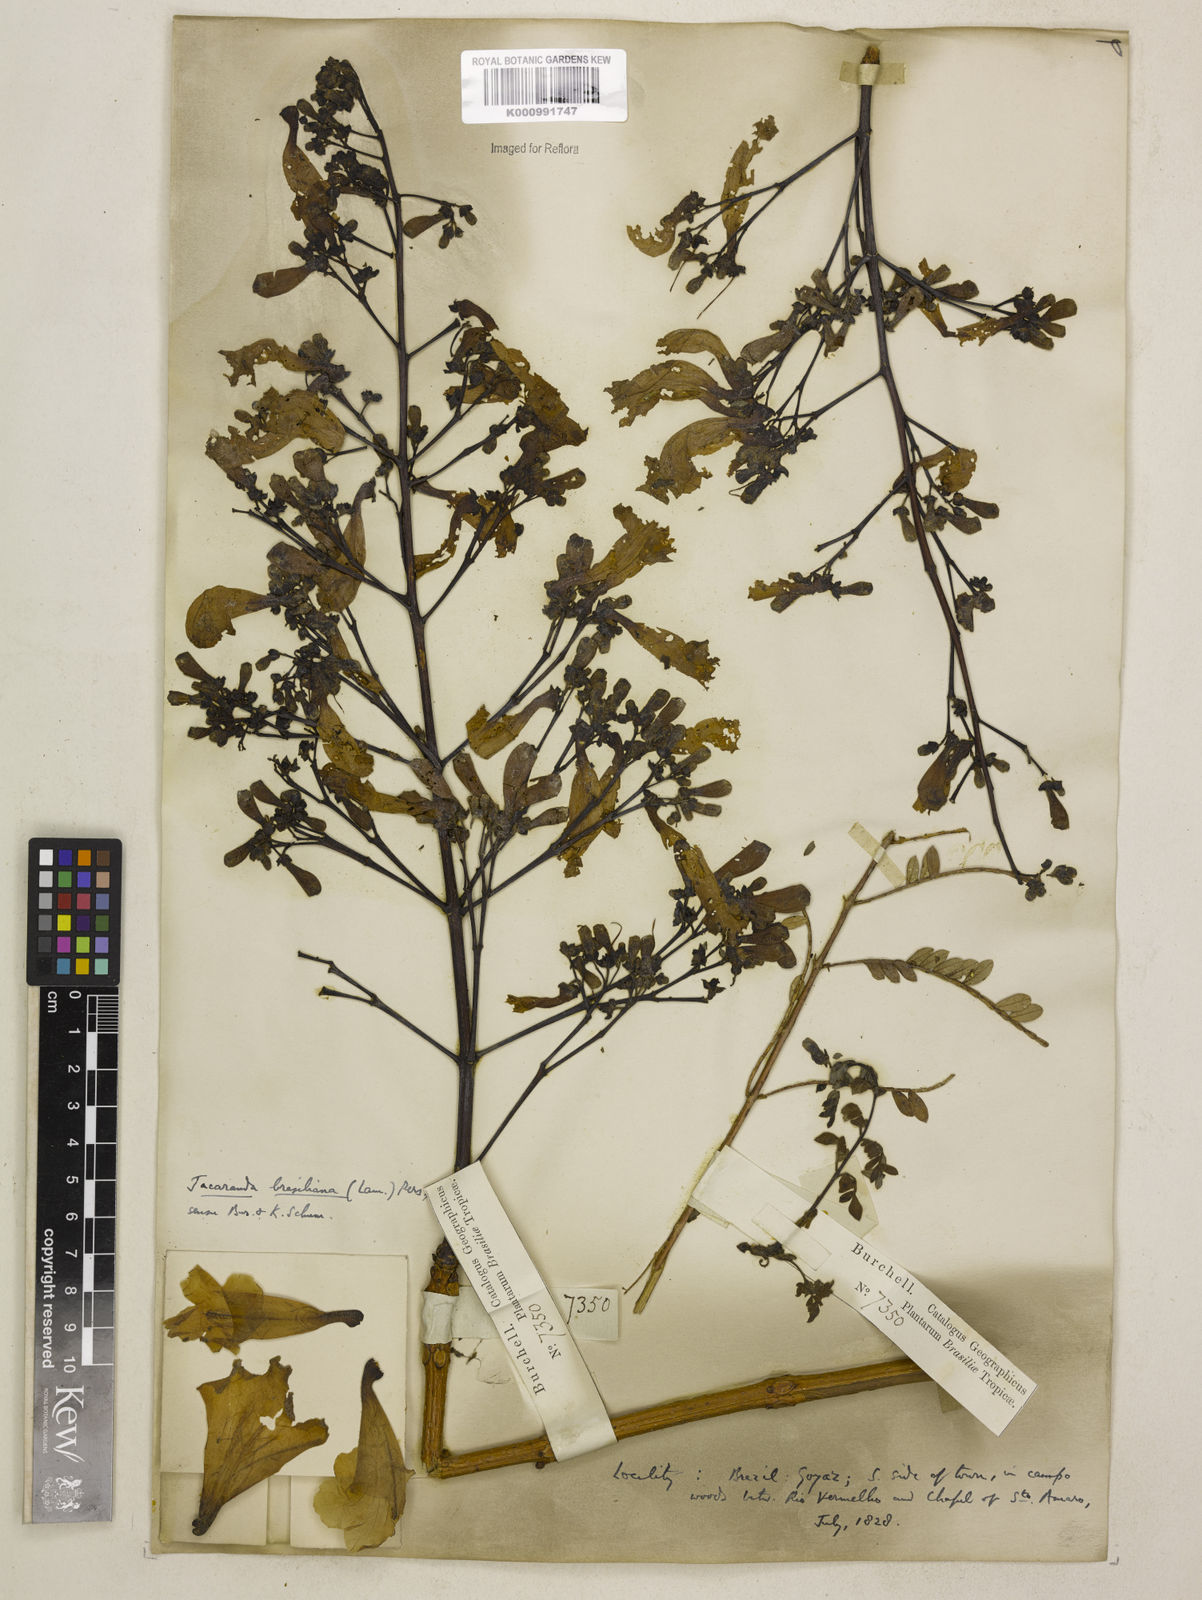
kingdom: Plantae
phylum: Tracheophyta
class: Magnoliopsida
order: Lamiales
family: Bignoniaceae
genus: Jacaranda
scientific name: Jacaranda brasiliana
